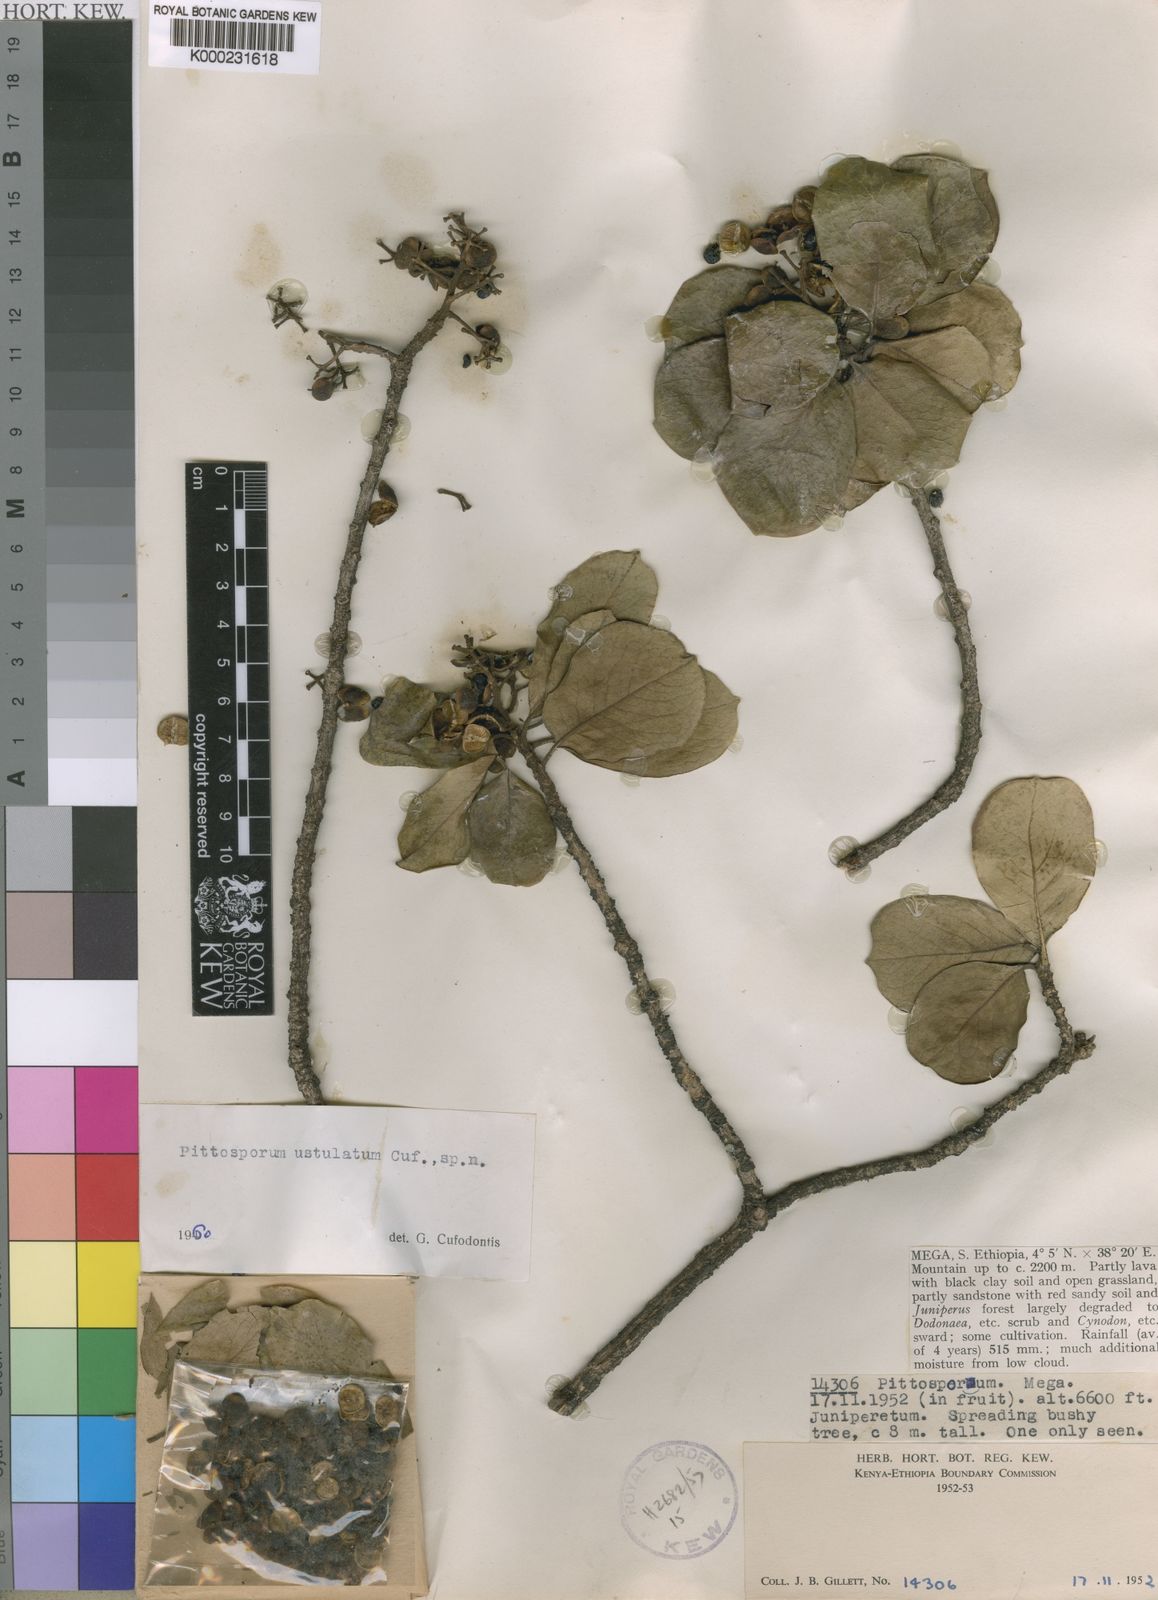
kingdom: Plantae
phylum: Tracheophyta
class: Magnoliopsida
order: Apiales
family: Pittosporaceae
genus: Pittosporum
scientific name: Pittosporum viridiflorum
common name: Cape cheesewood
